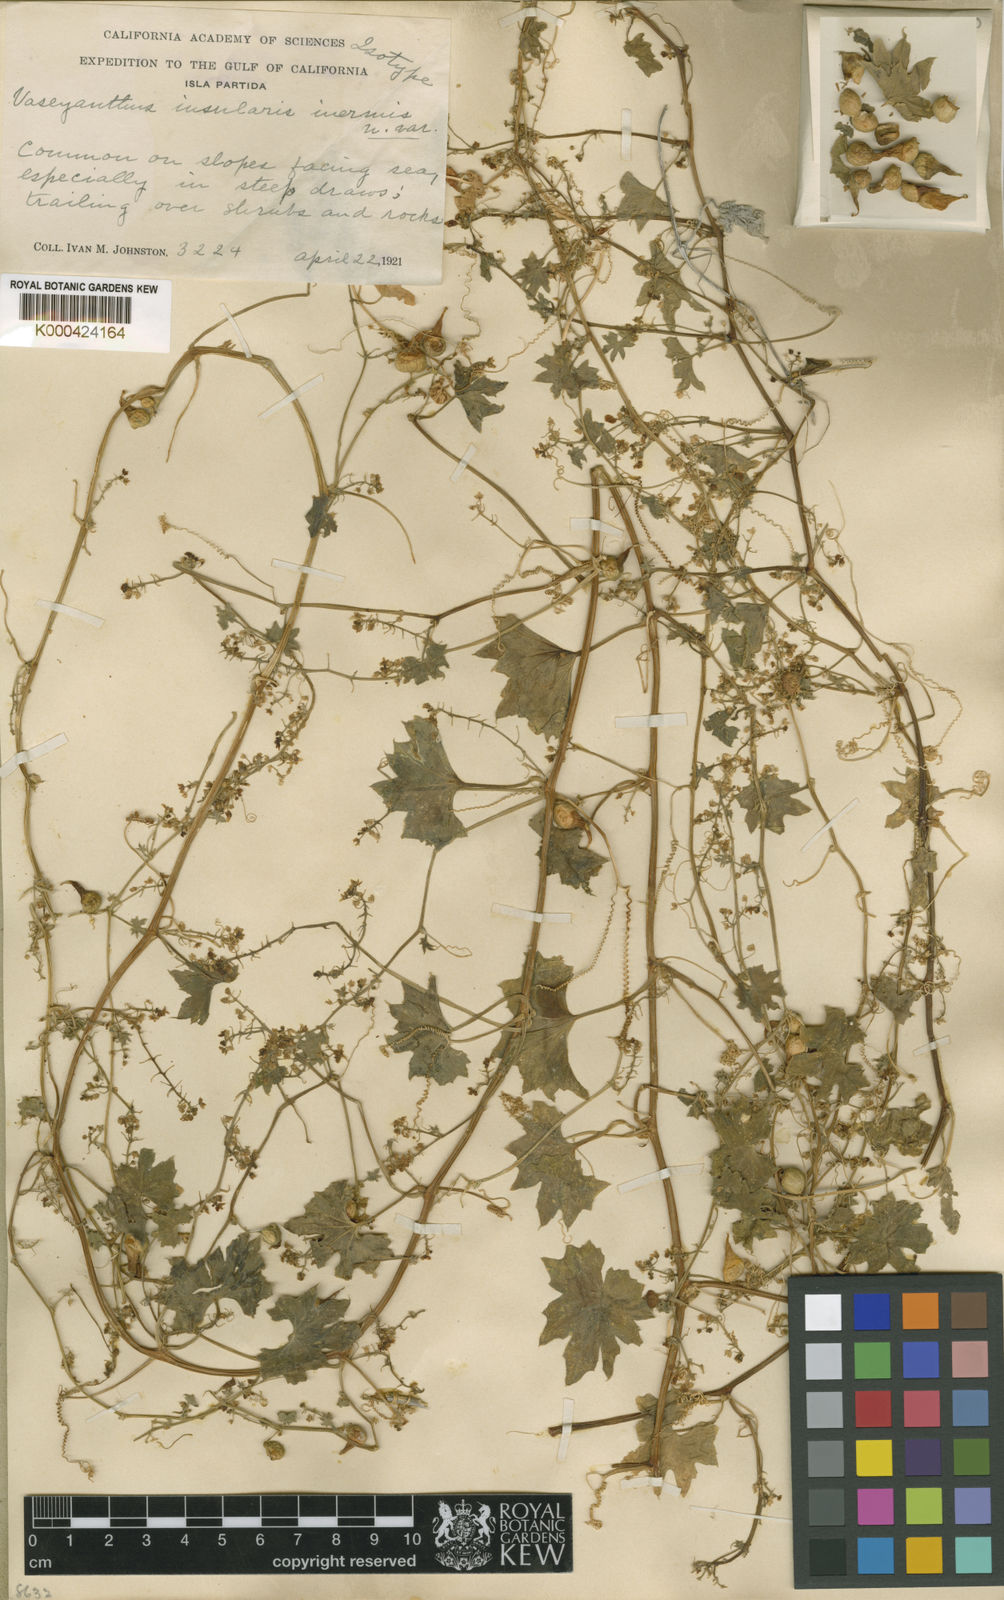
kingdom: Plantae
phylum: Tracheophyta
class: Magnoliopsida
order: Cucurbitales
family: Cucurbitaceae
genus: Echinopepon
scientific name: Echinopepon insularis
